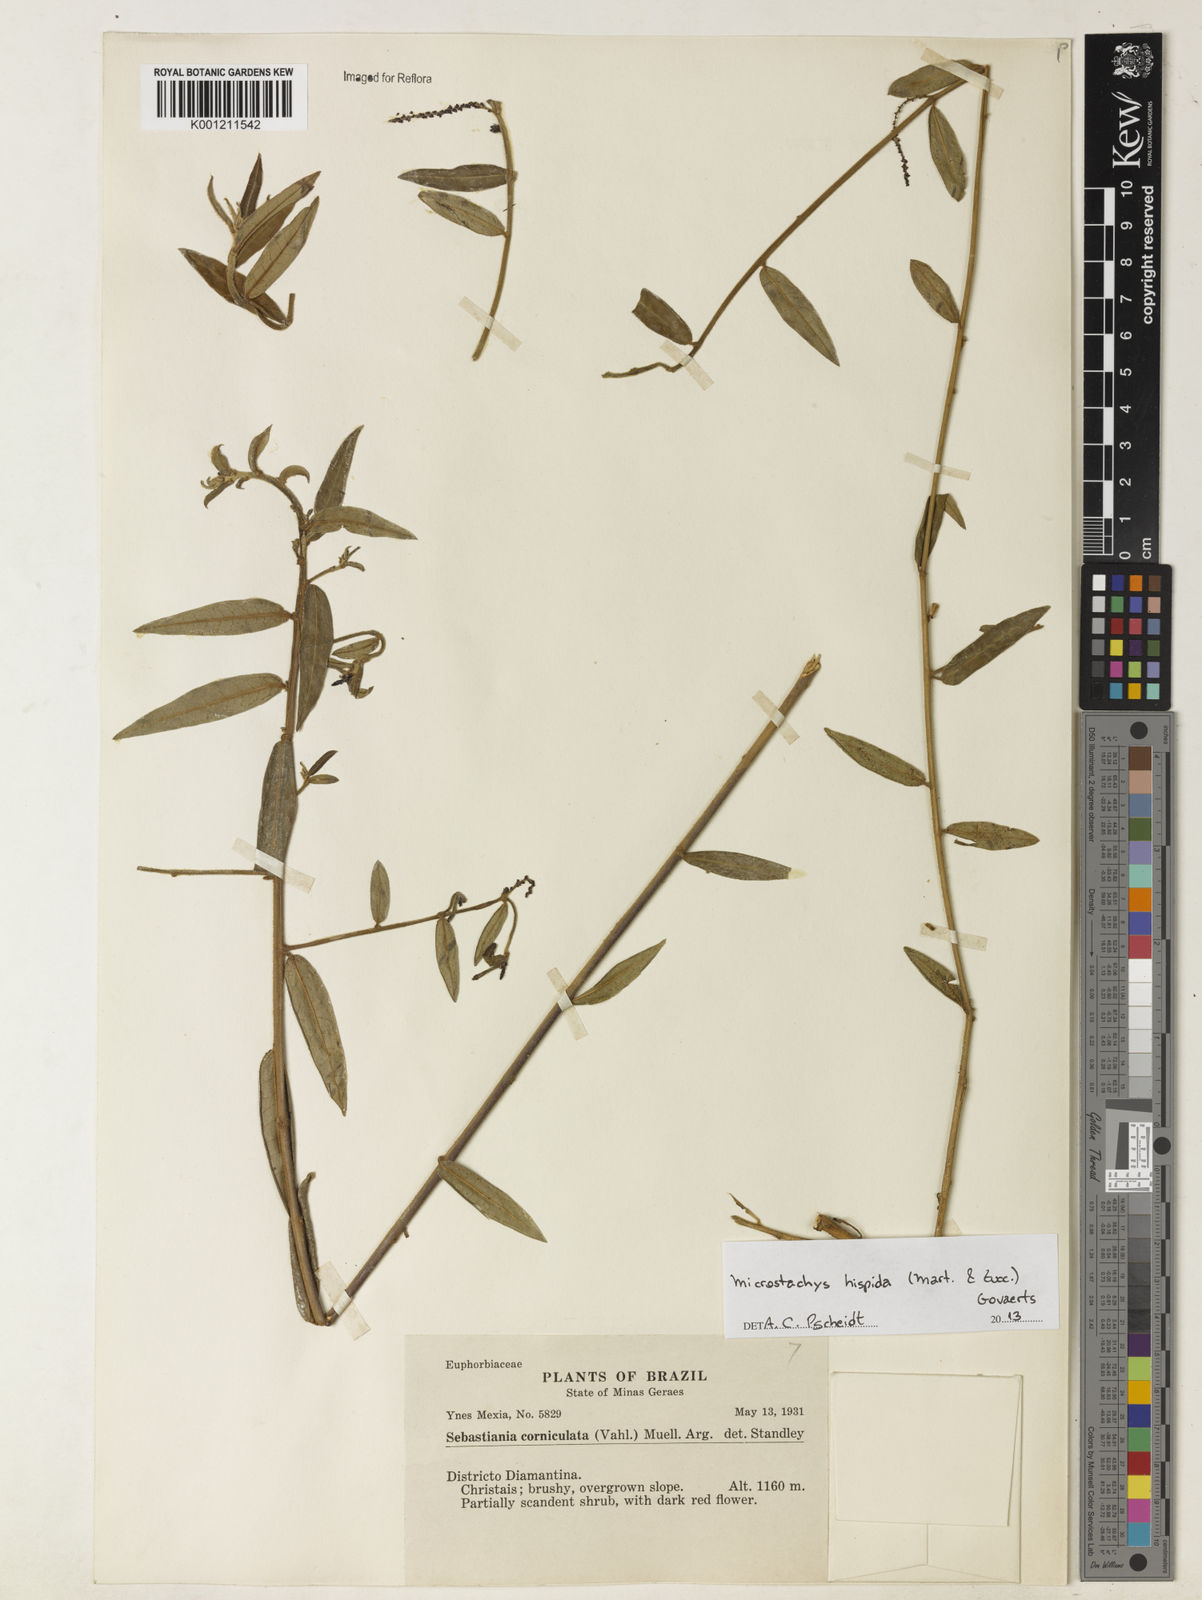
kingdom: Plantae
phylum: Tracheophyta
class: Magnoliopsida
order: Malpighiales
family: Euphorbiaceae
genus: Microstachys
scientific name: Microstachys hispida
